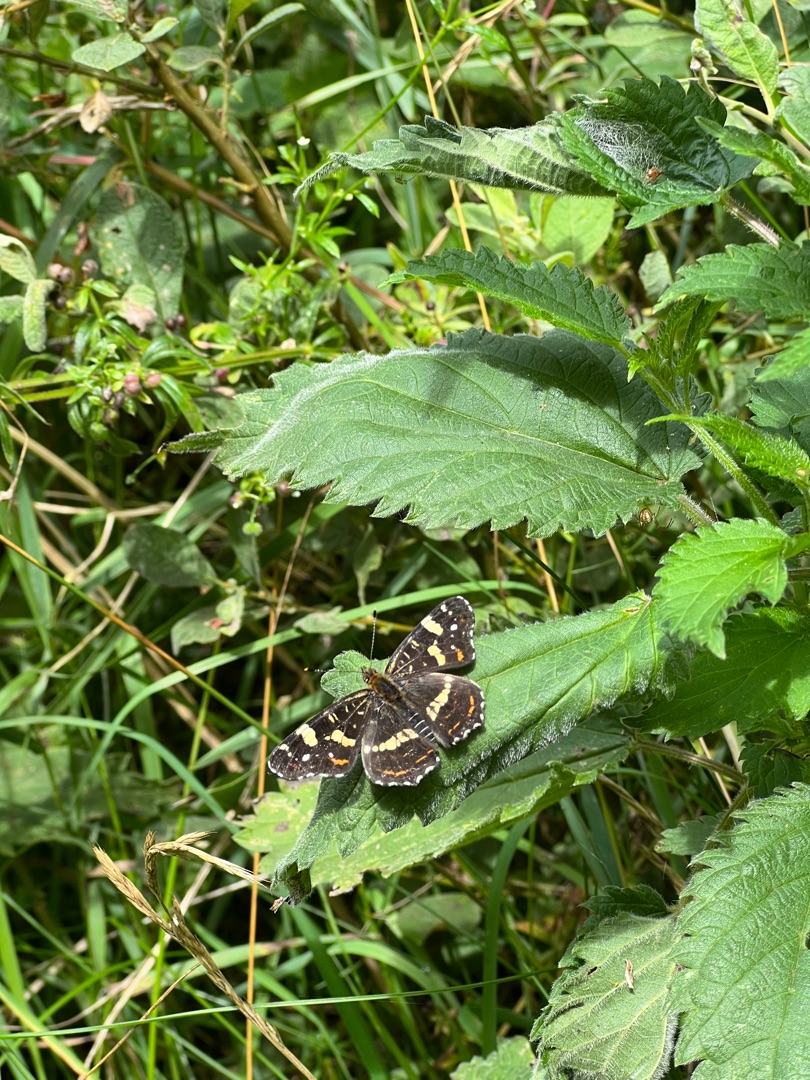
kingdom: Animalia
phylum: Arthropoda
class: Insecta
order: Lepidoptera
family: Nymphalidae
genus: Araschnia
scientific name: Araschnia levana
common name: Nældesommerfugl
